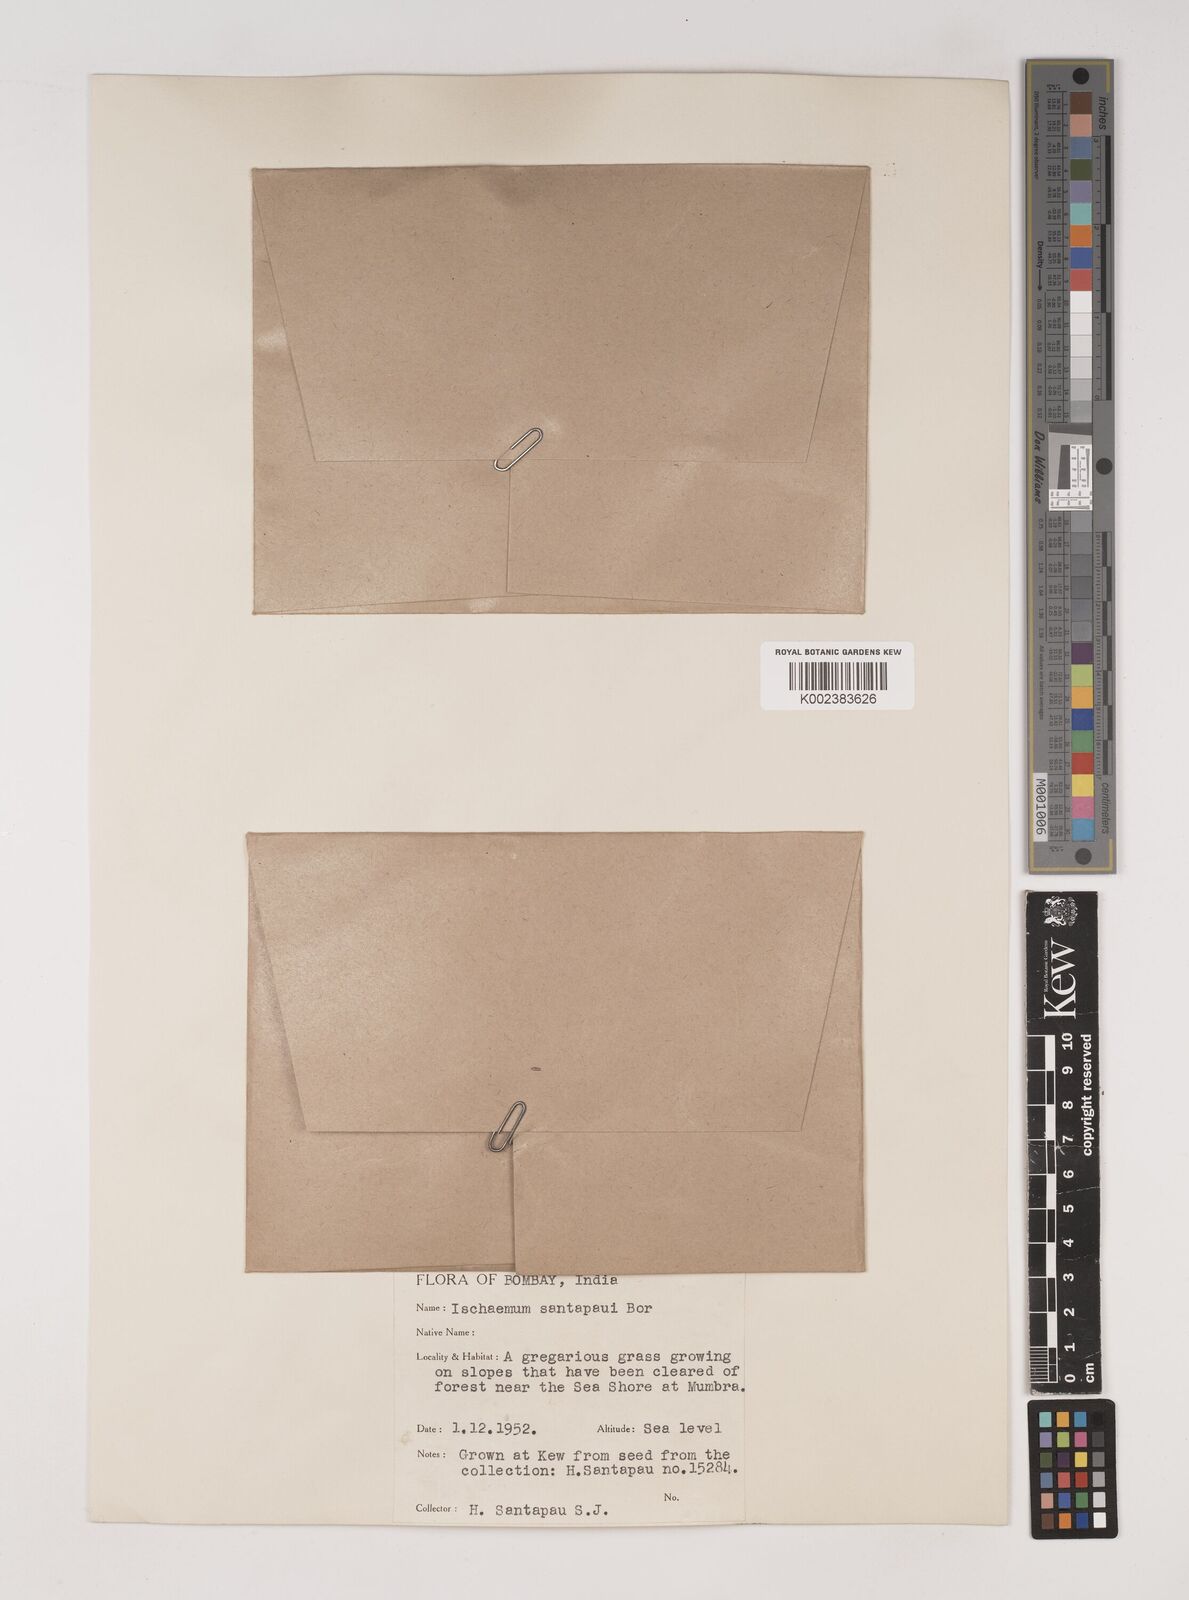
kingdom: Plantae
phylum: Tracheophyta
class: Liliopsida
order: Poales
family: Poaceae
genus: Ischaemum
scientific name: Ischaemum santapaui
